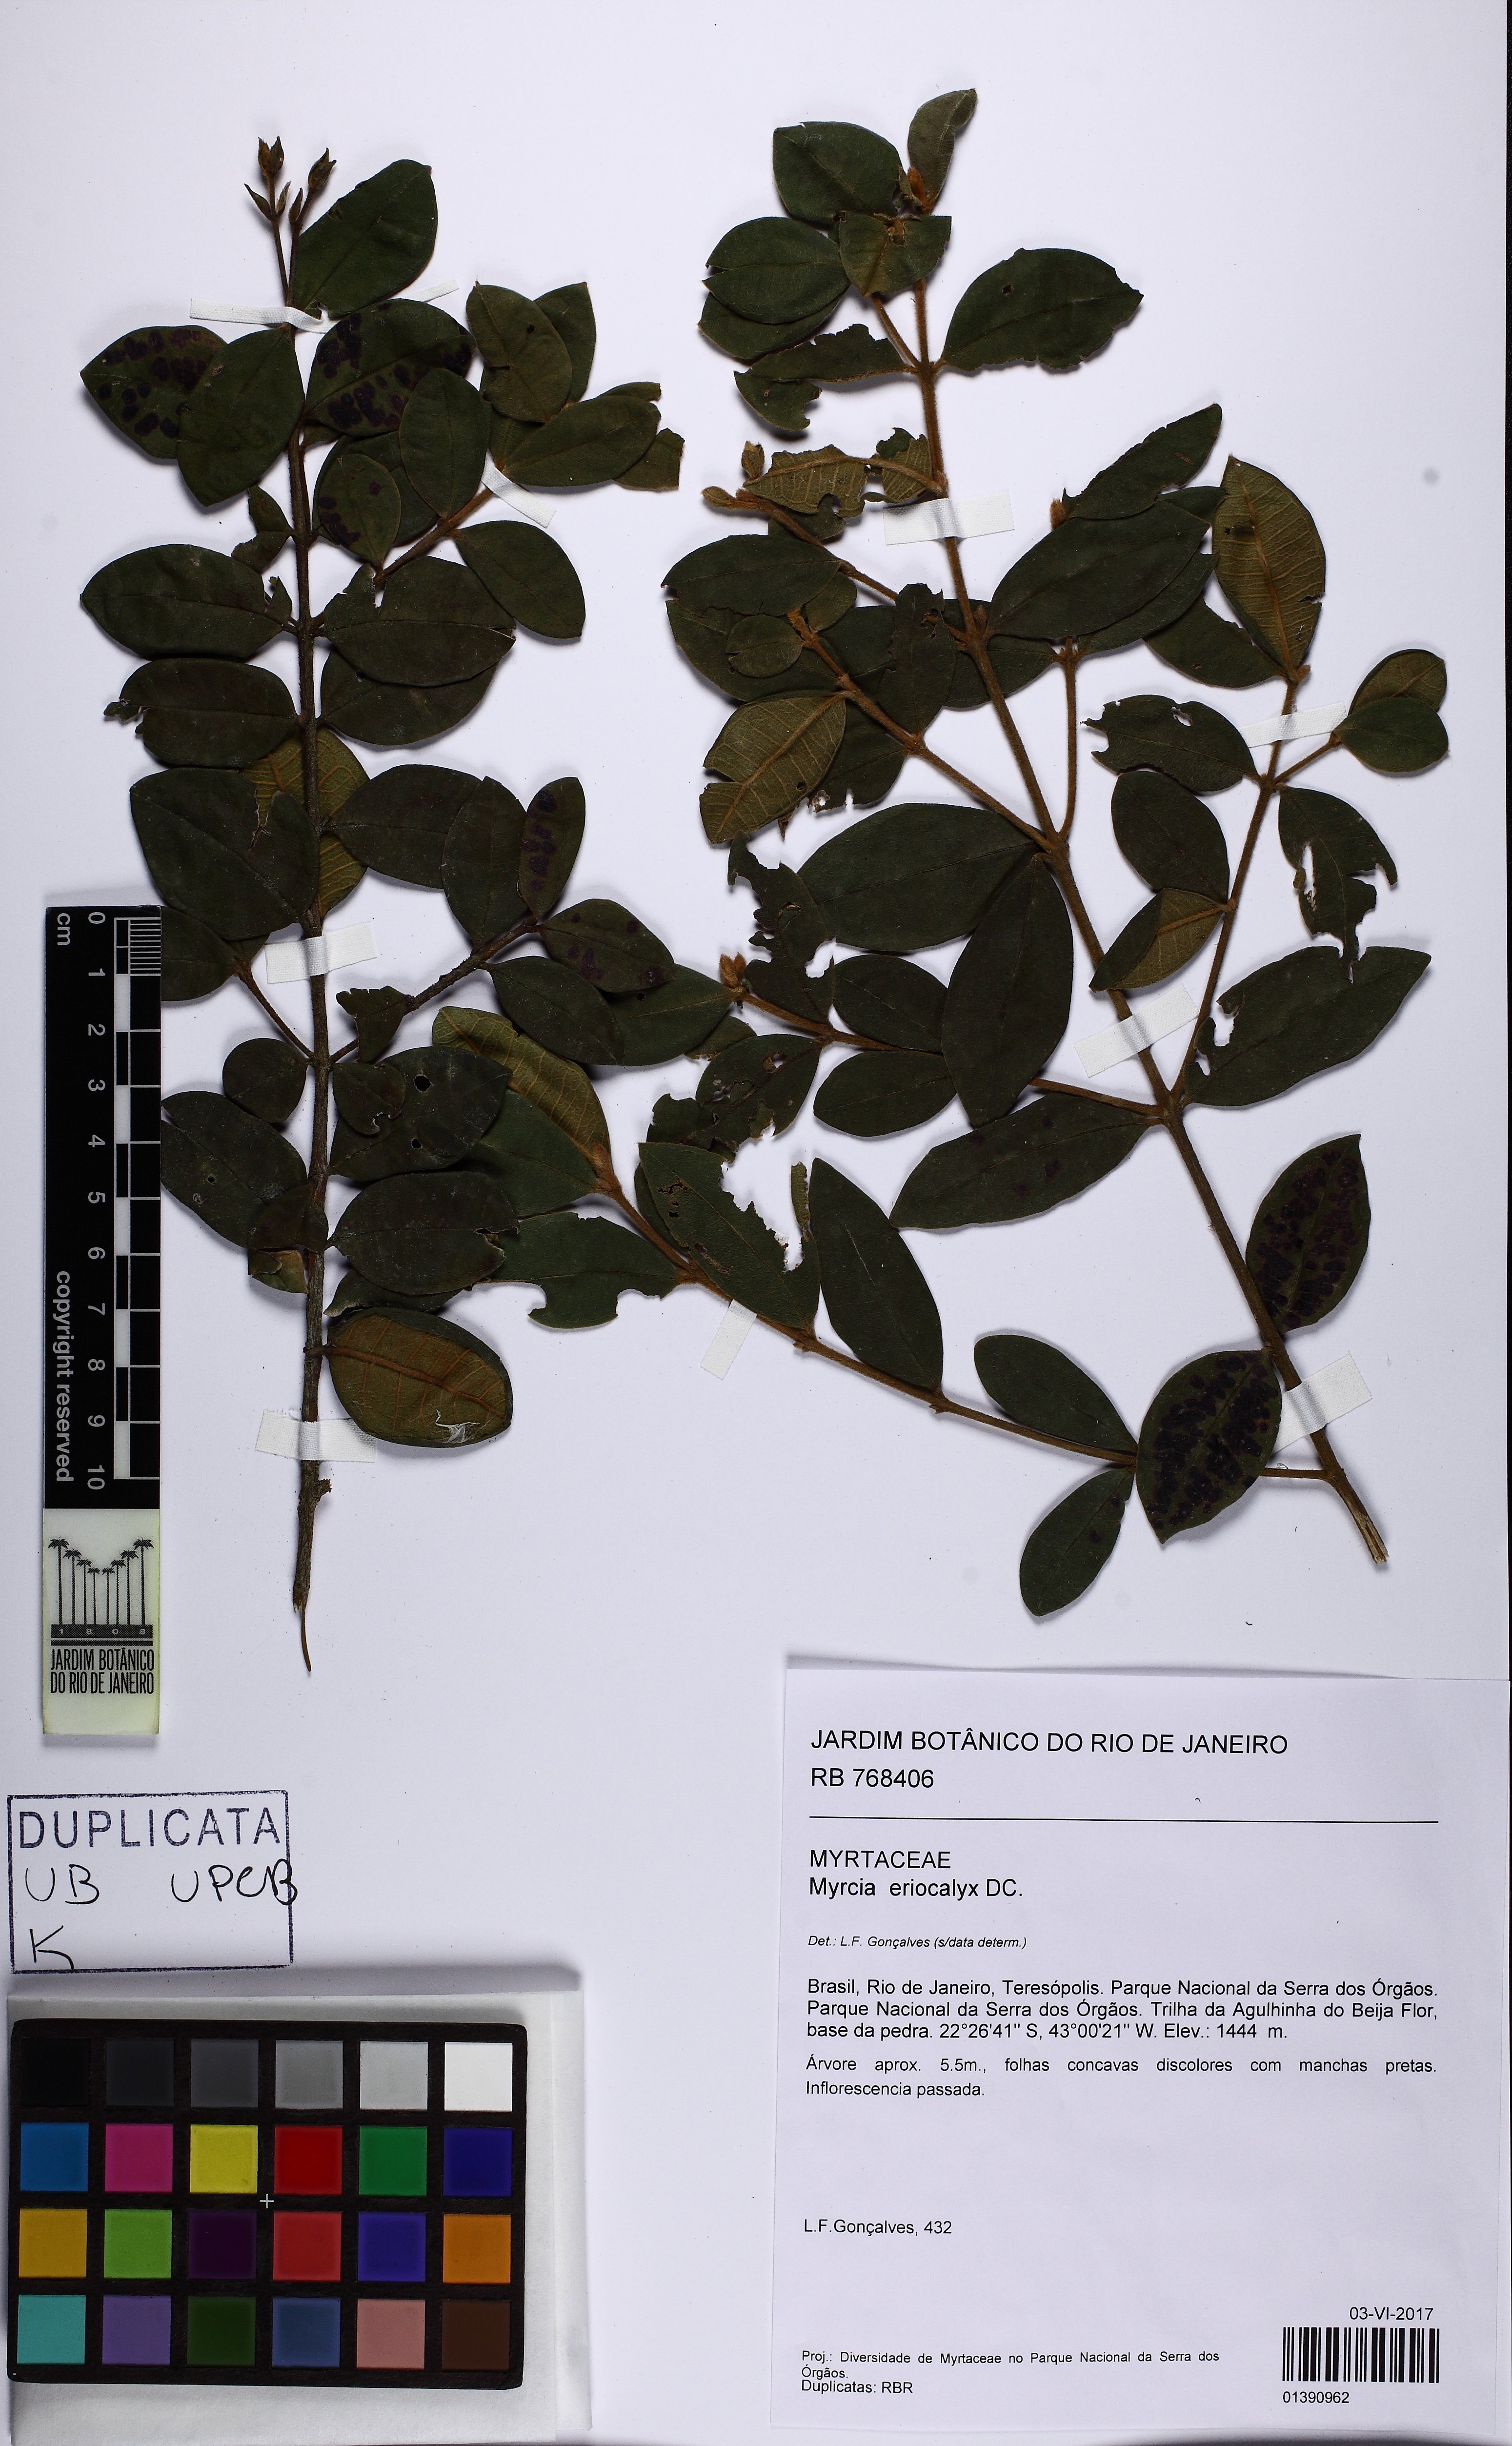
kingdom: Plantae
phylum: Tracheophyta
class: Magnoliopsida
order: Myrtales
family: Myrtaceae
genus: Myrcia
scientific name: Myrcia eriocalyx
